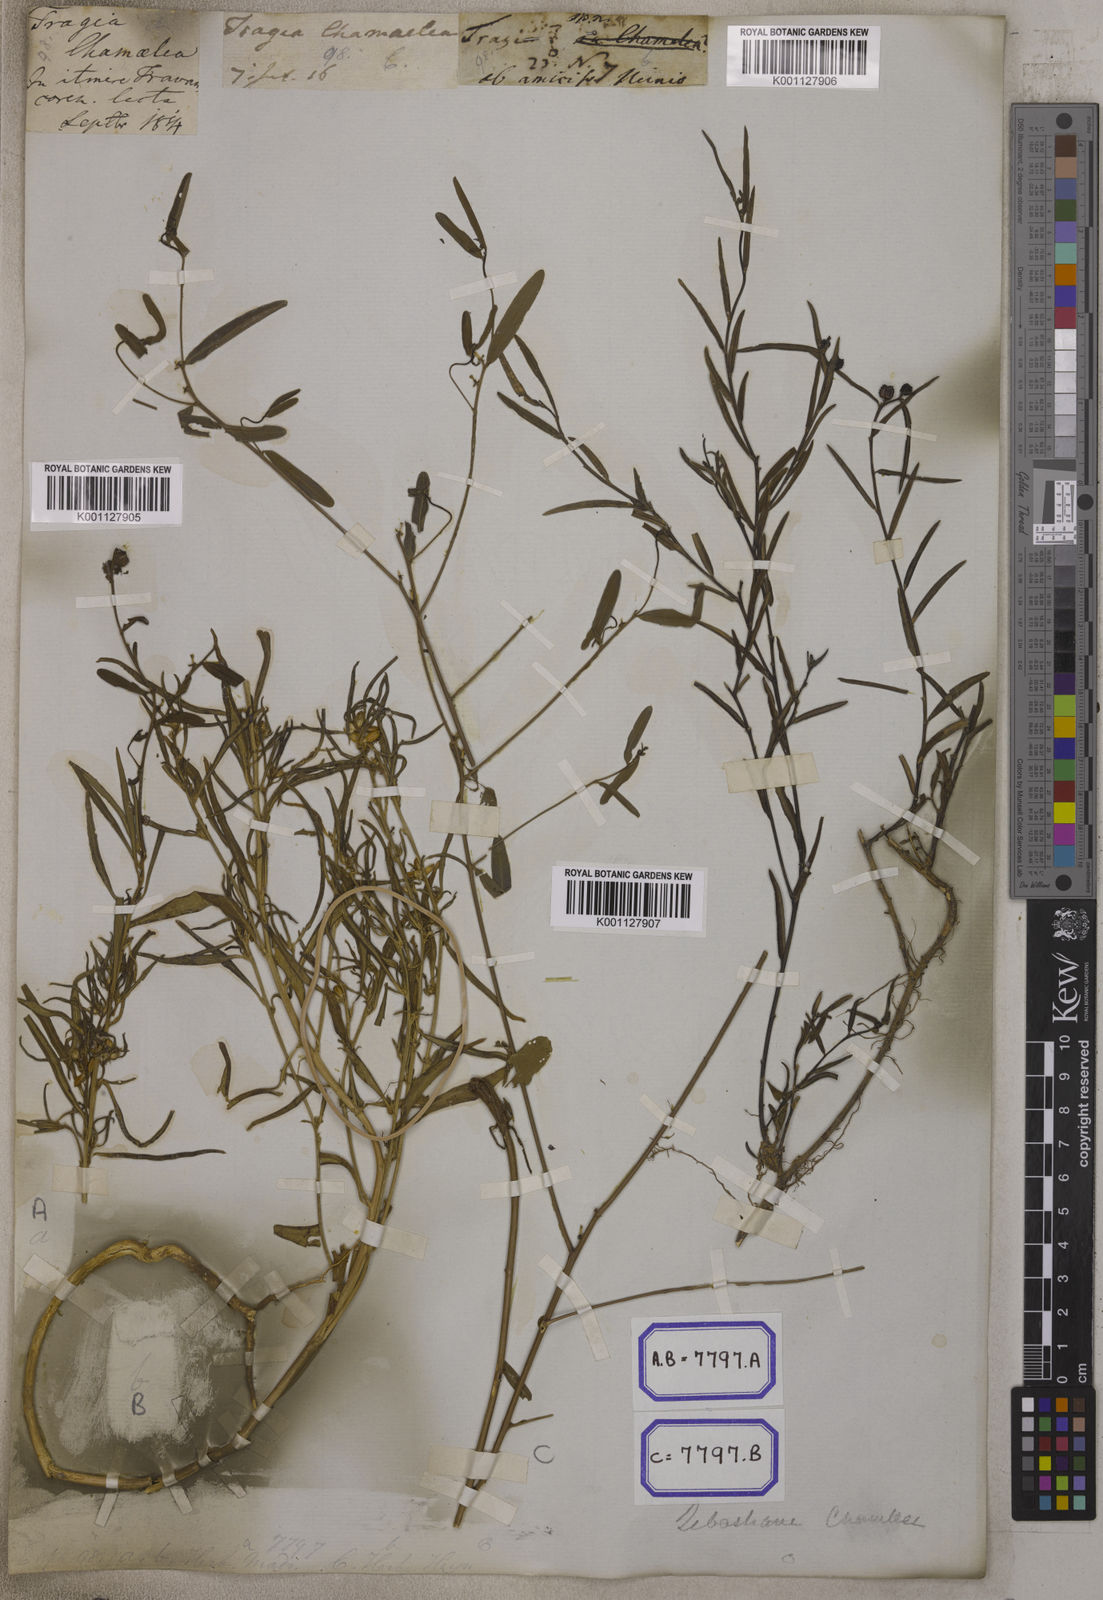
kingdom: Plantae
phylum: Tracheophyta
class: Magnoliopsida
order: Malpighiales
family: Euphorbiaceae
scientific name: Euphorbiaceae
